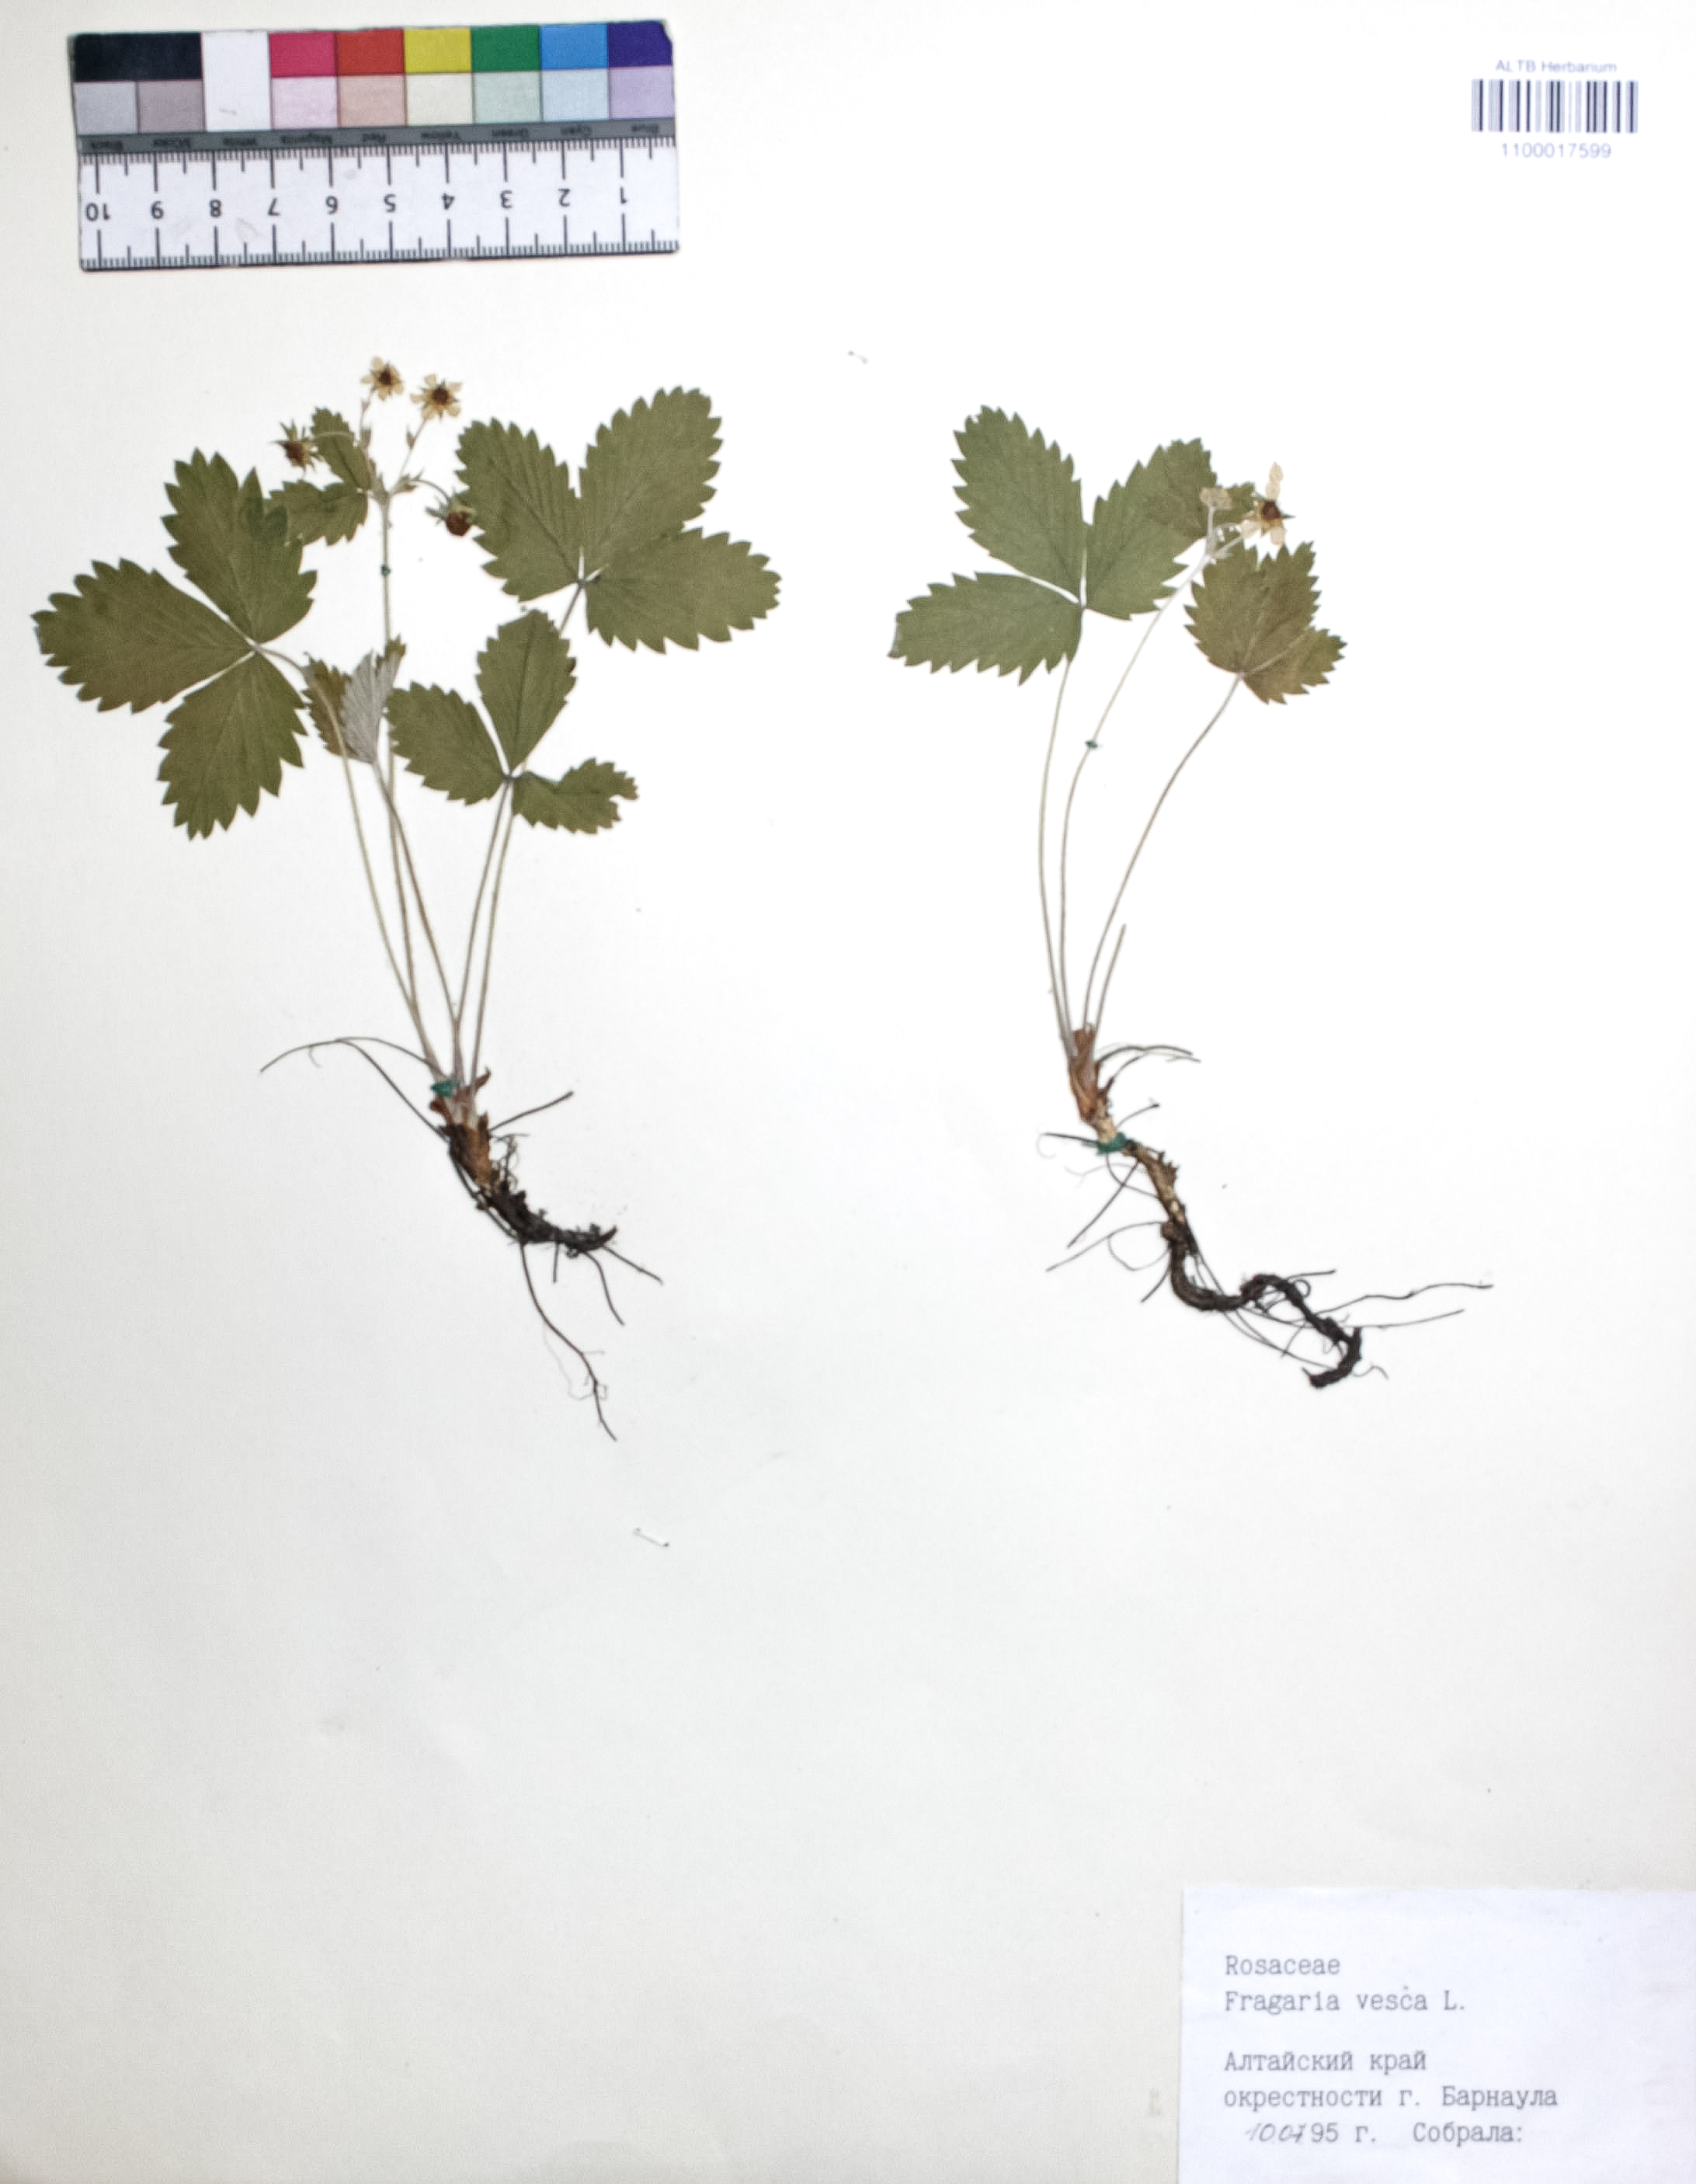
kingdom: Plantae
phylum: Tracheophyta
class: Magnoliopsida
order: Rosales
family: Rosaceae
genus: Fragaria
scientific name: Fragaria vesca
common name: Wild strawberry
